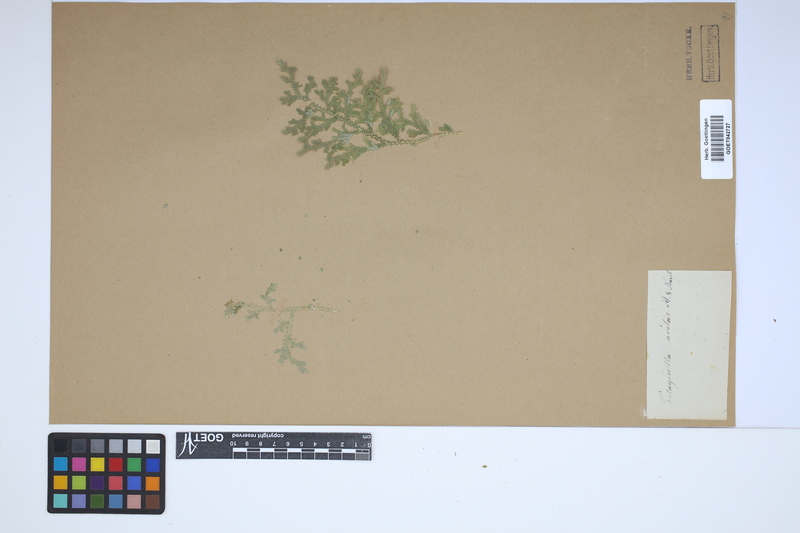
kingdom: Plantae
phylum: Tracheophyta
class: Lycopodiopsida
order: Selaginellales
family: Selaginellaceae
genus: Selaginella
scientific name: Selaginella pallescens
